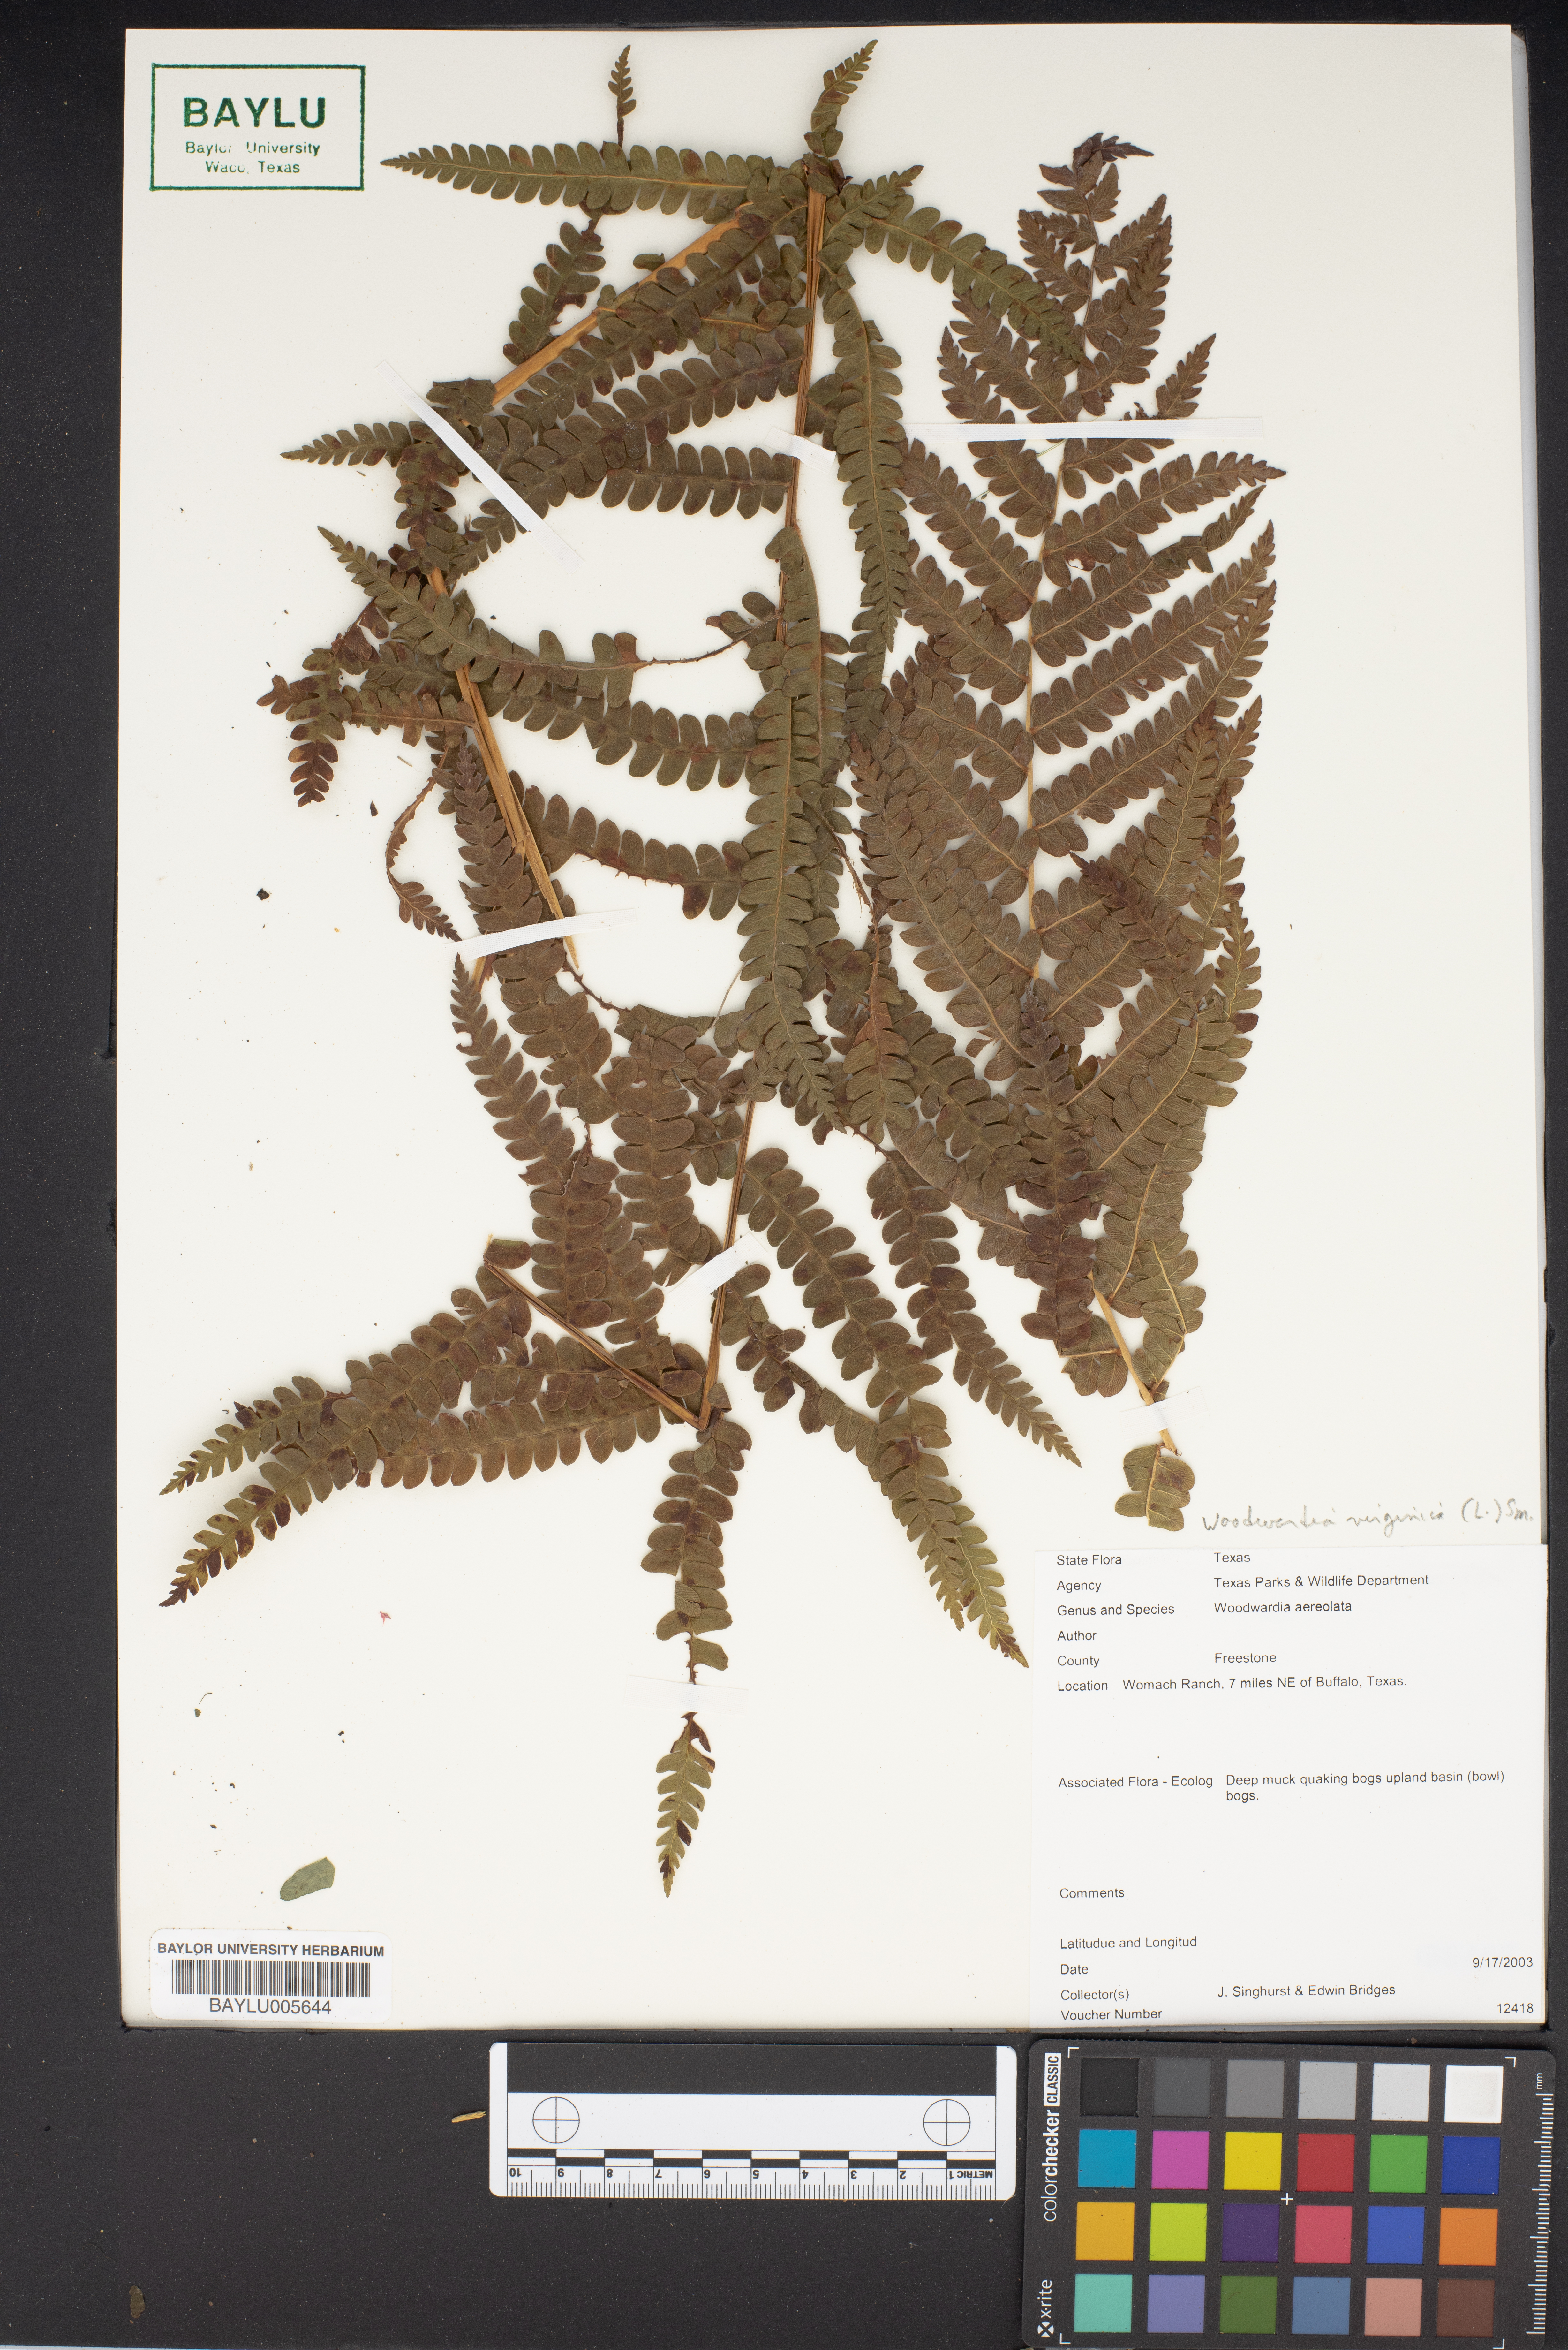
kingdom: Plantae
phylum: Tracheophyta
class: Polypodiopsida
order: Polypodiales
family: Blechnaceae
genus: Anchistea
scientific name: Anchistea virginica
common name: Virginia chain fern
